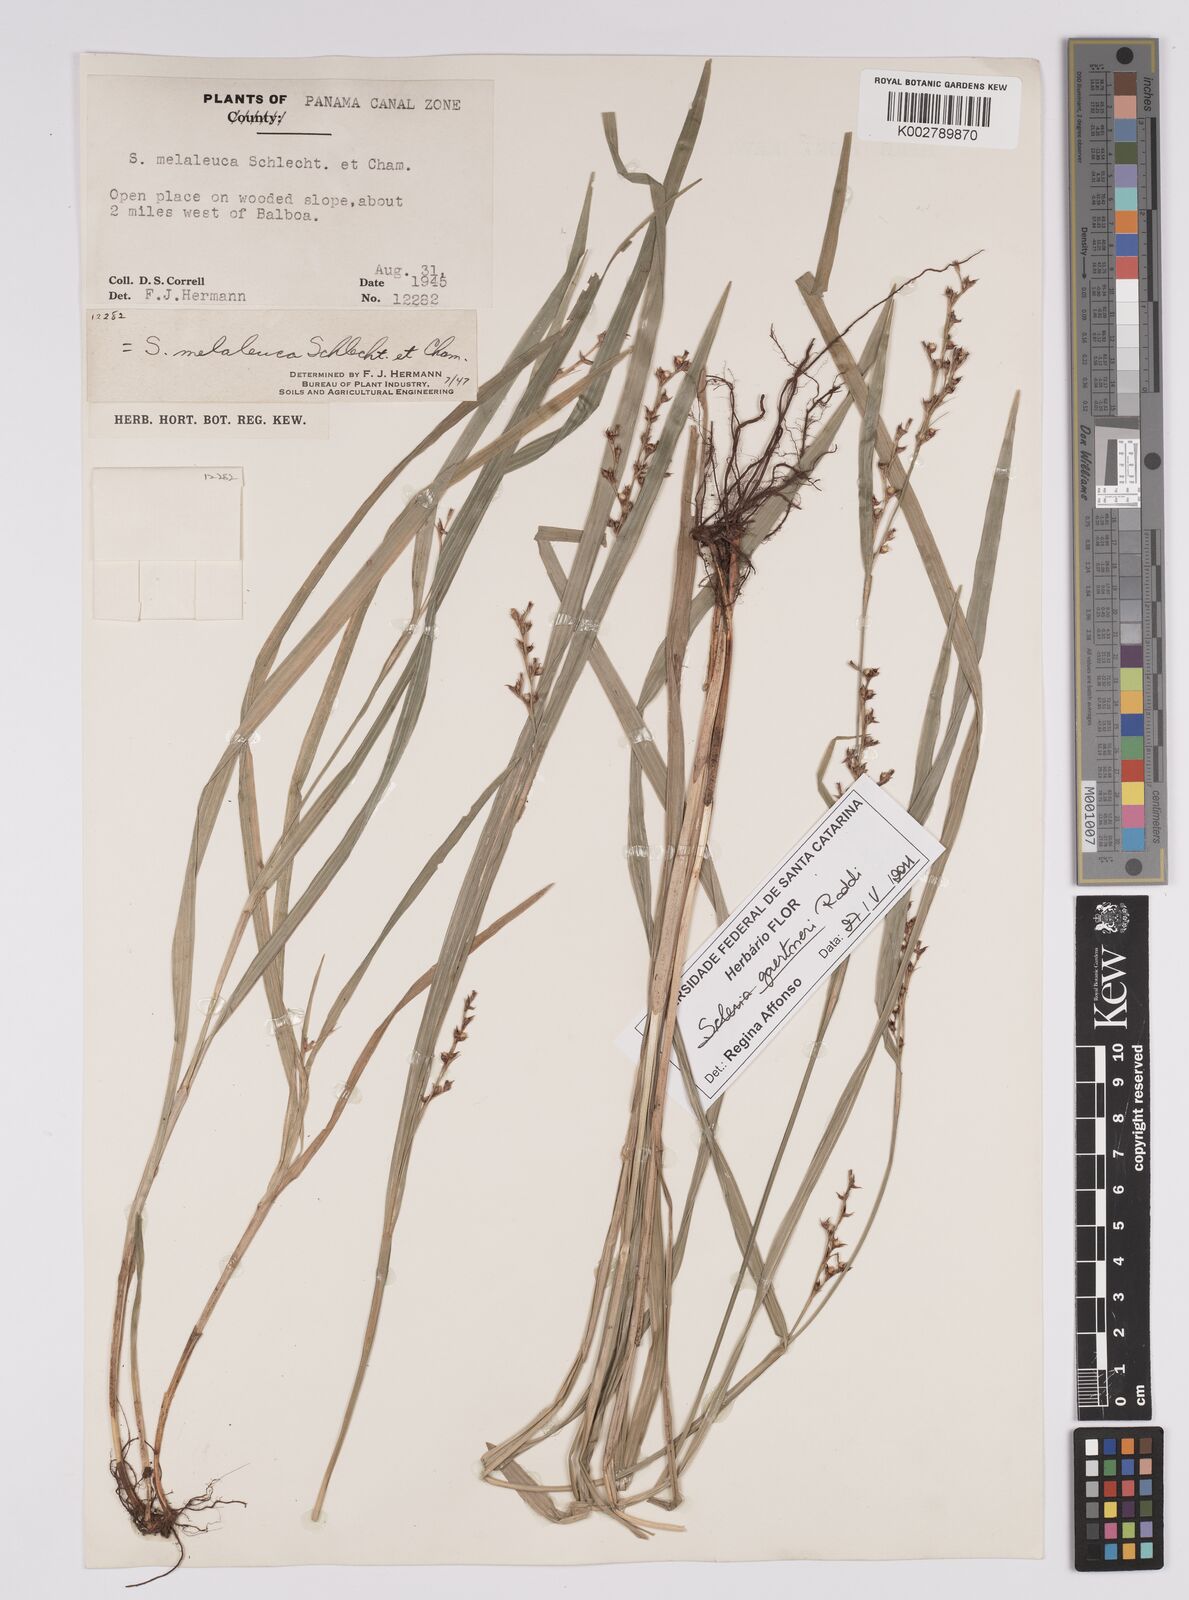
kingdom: Plantae
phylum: Tracheophyta
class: Liliopsida
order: Poales
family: Cyperaceae
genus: Scleria
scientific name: Scleria gaertneri
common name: Cortadera blanca
